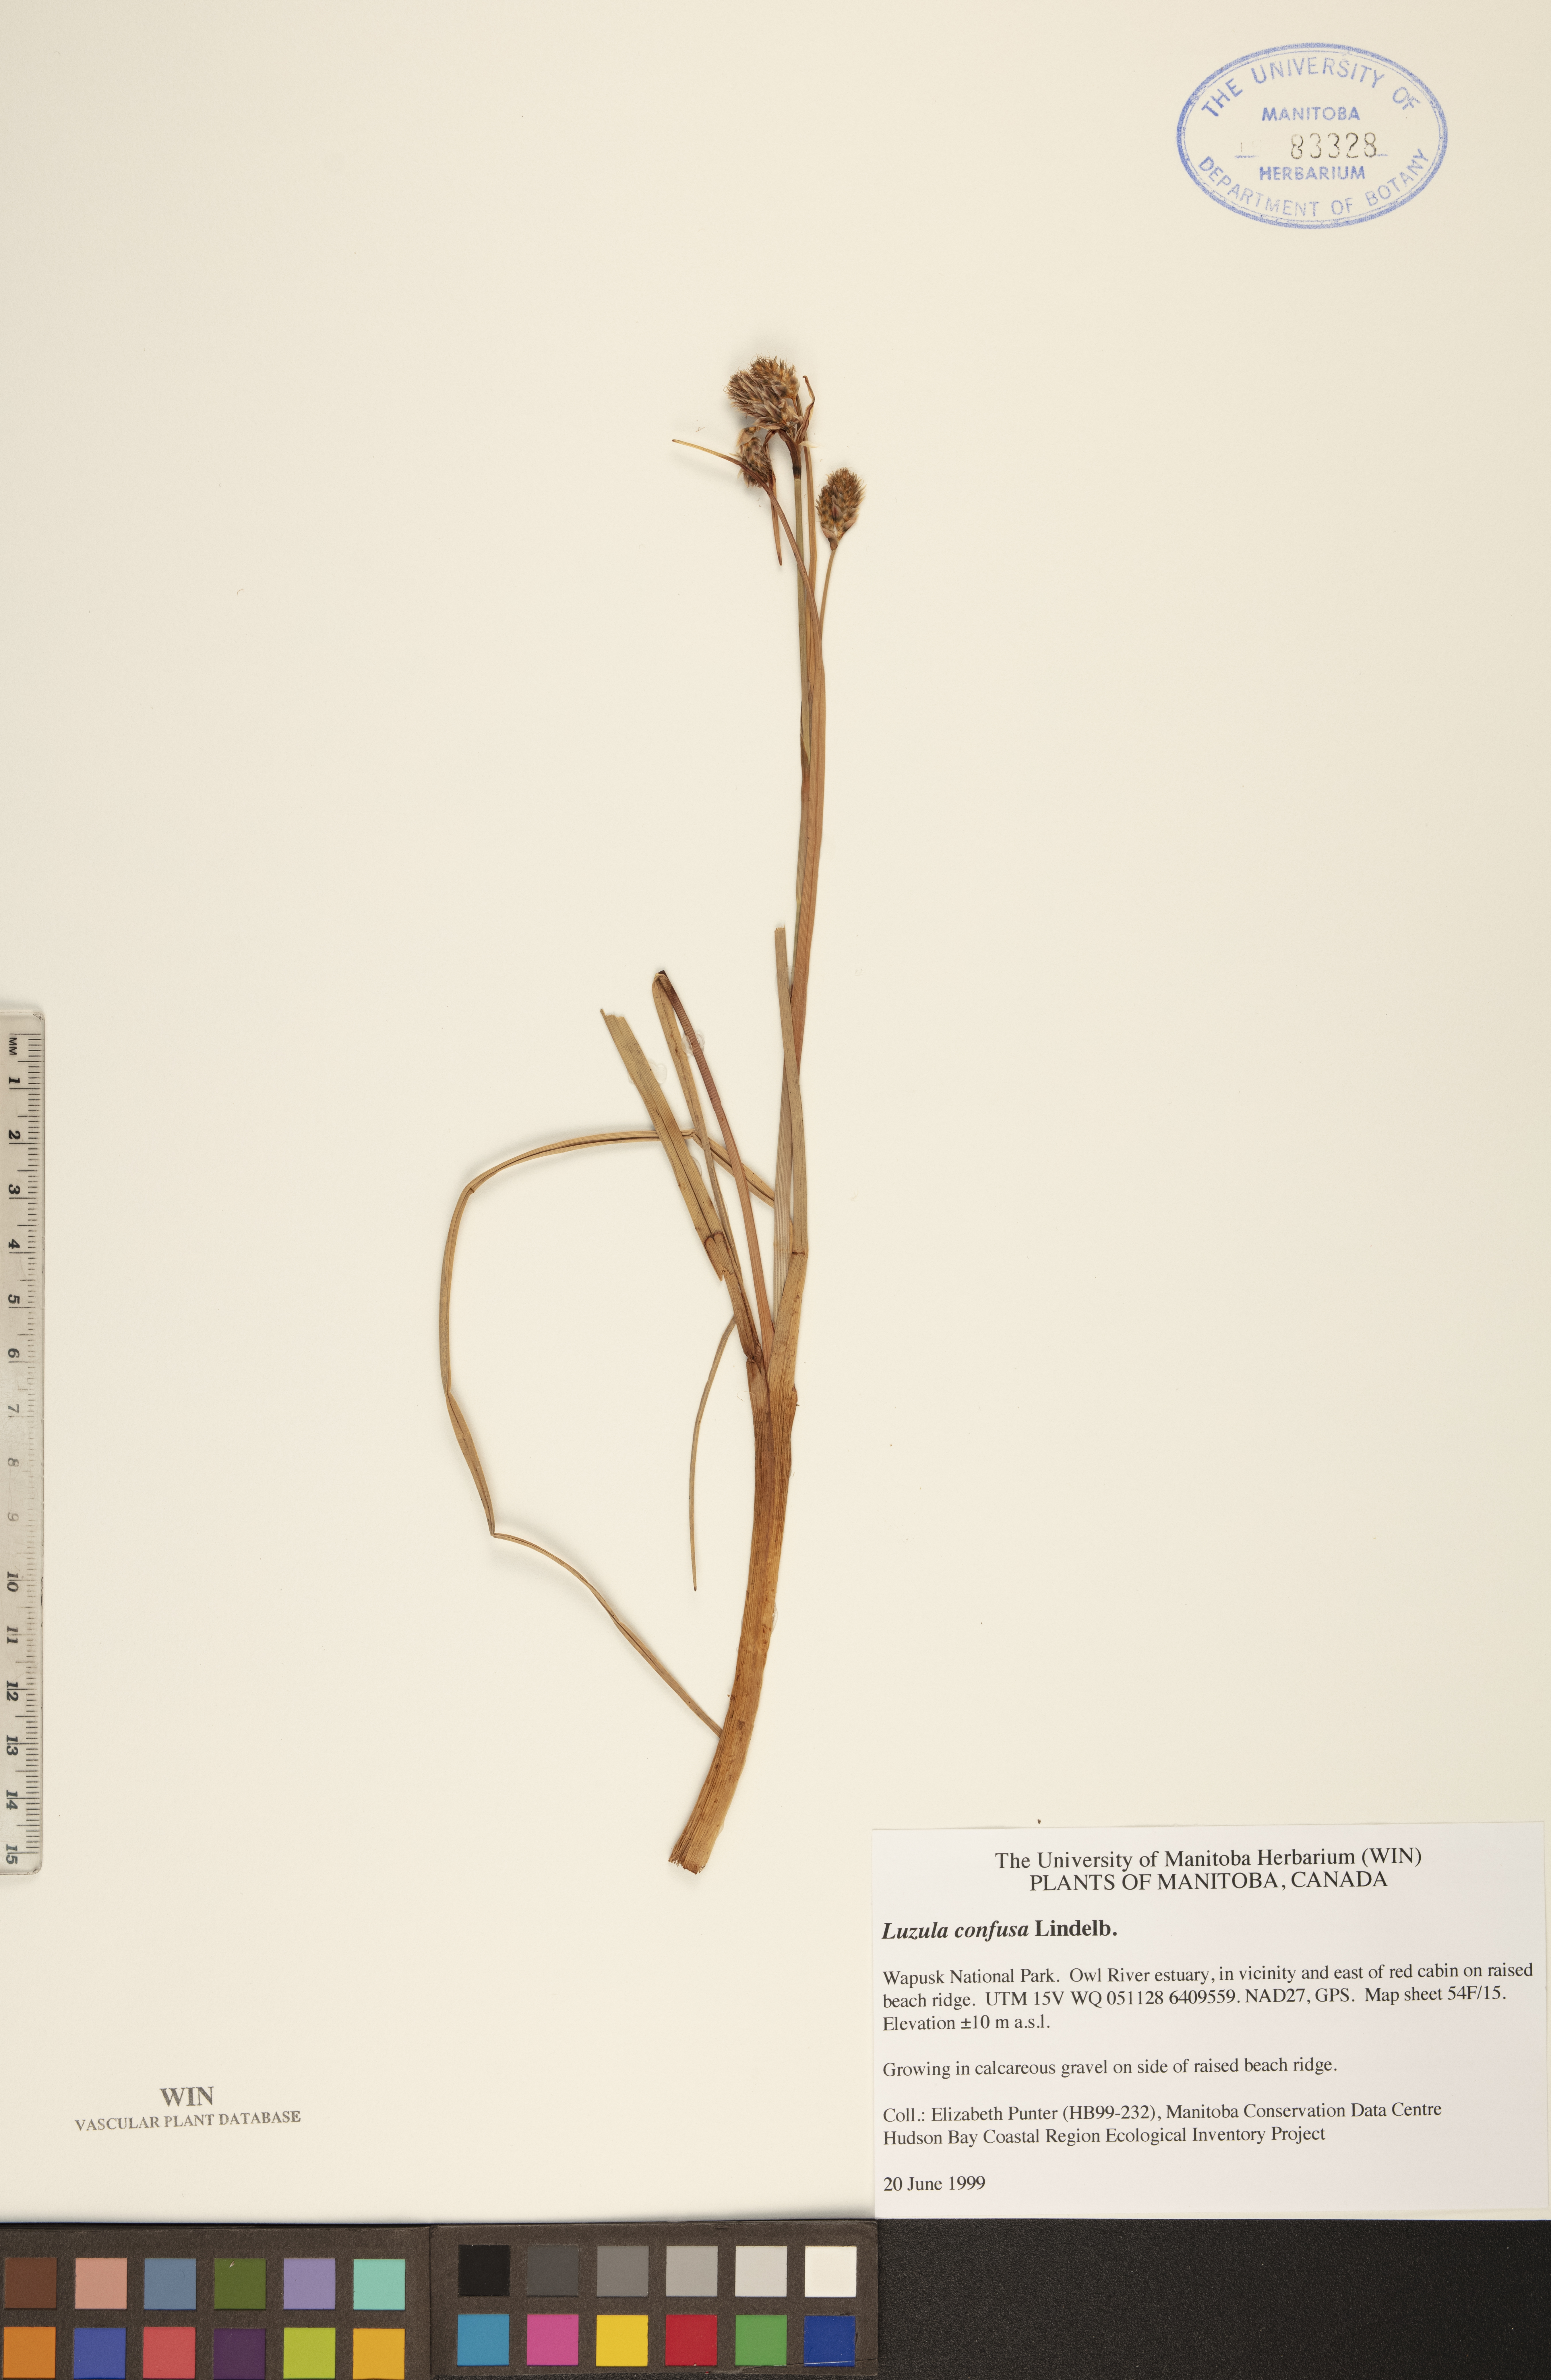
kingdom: Plantae
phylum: Tracheophyta
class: Liliopsida
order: Poales
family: Juncaceae
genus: Luzula
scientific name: Luzula confusa
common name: Northern wood rush
